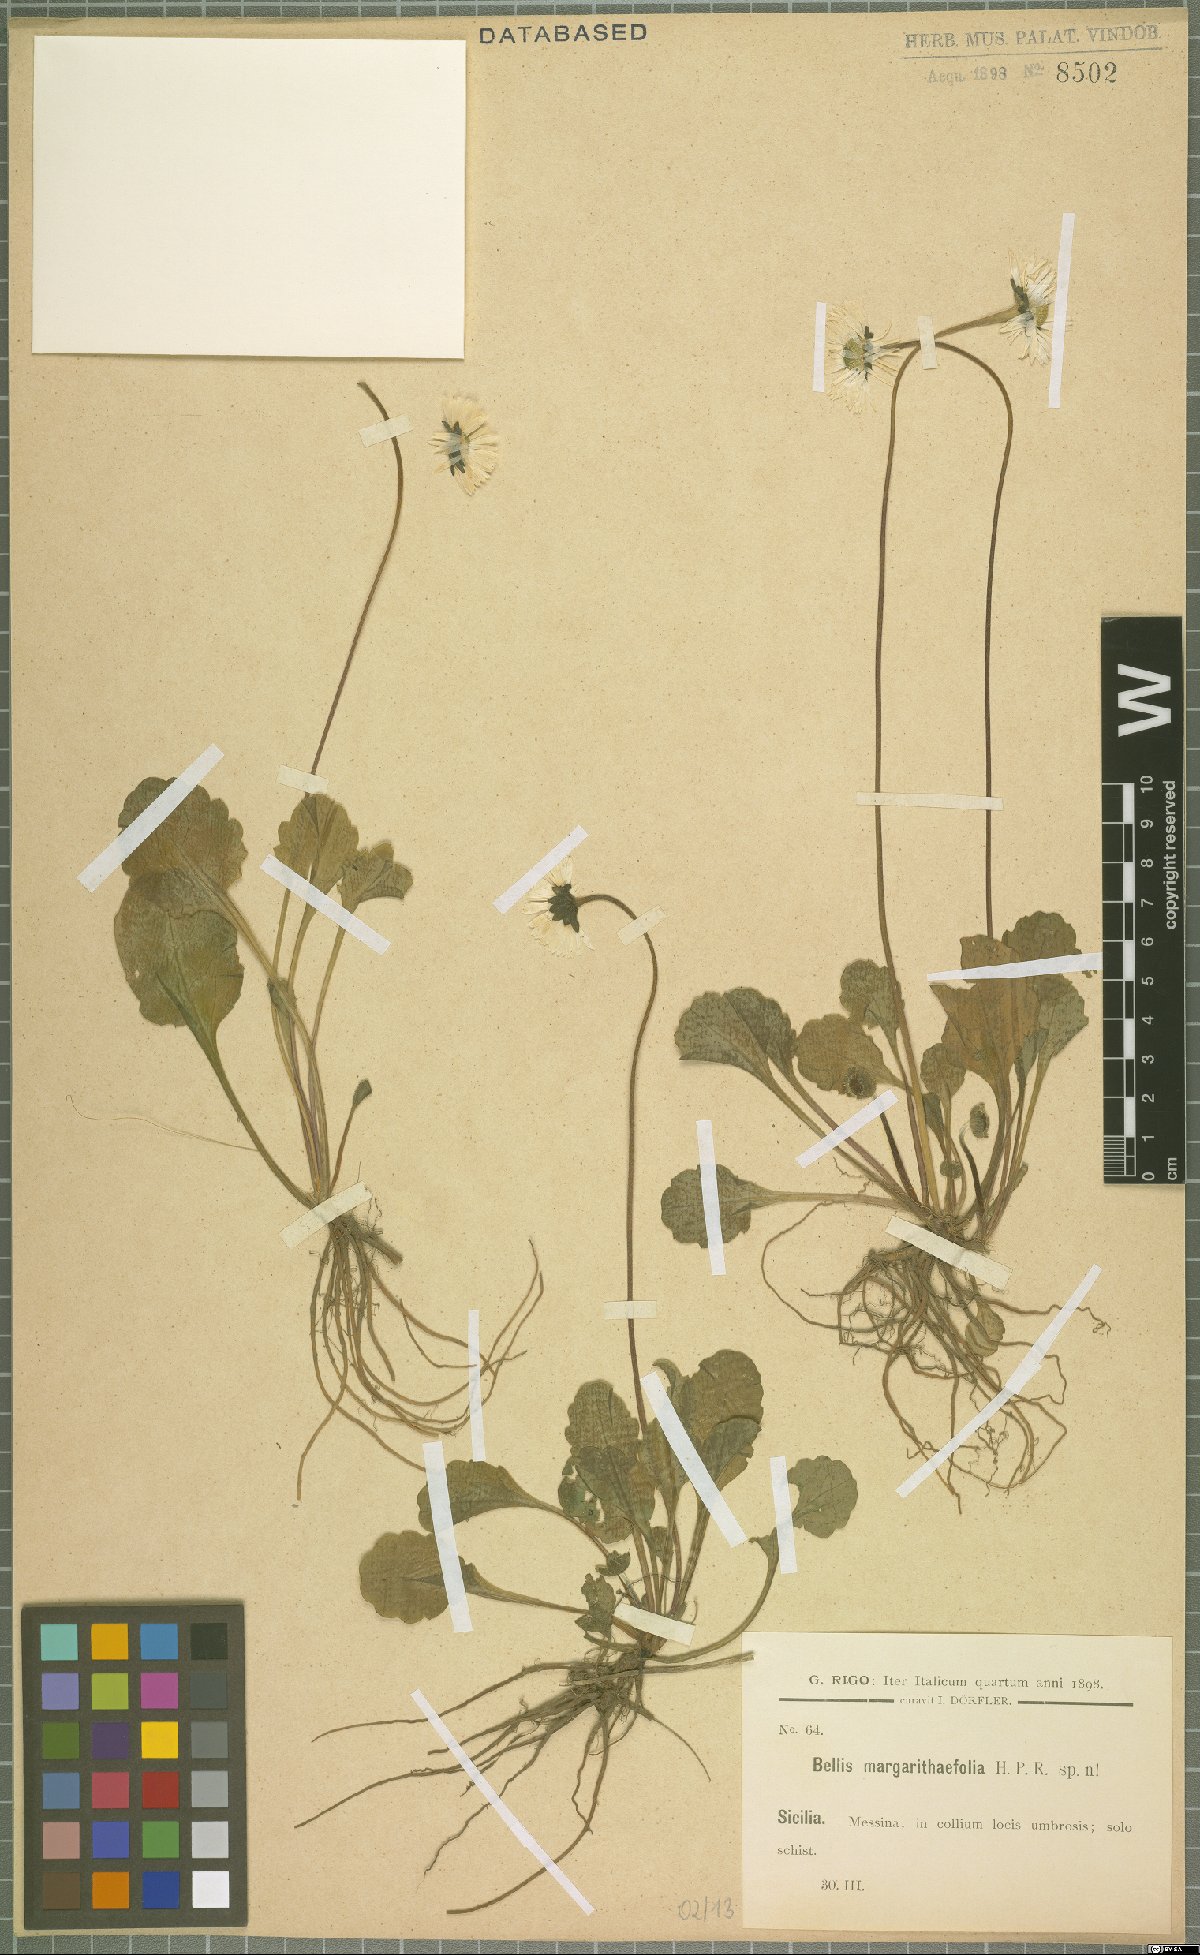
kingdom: Plantae
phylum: Tracheophyta
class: Magnoliopsida
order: Asterales
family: Asteraceae
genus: Bellis
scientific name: Bellis margaritifolia
